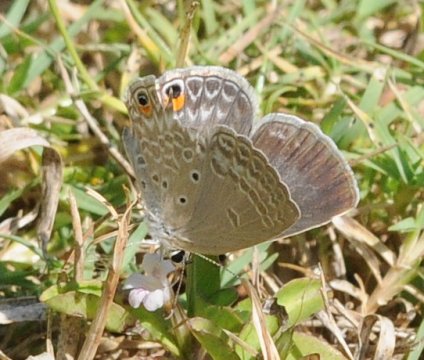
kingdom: Animalia
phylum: Arthropoda
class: Insecta
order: Lepidoptera
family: Lycaenidae
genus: Anthene
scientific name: Anthene lunulata
